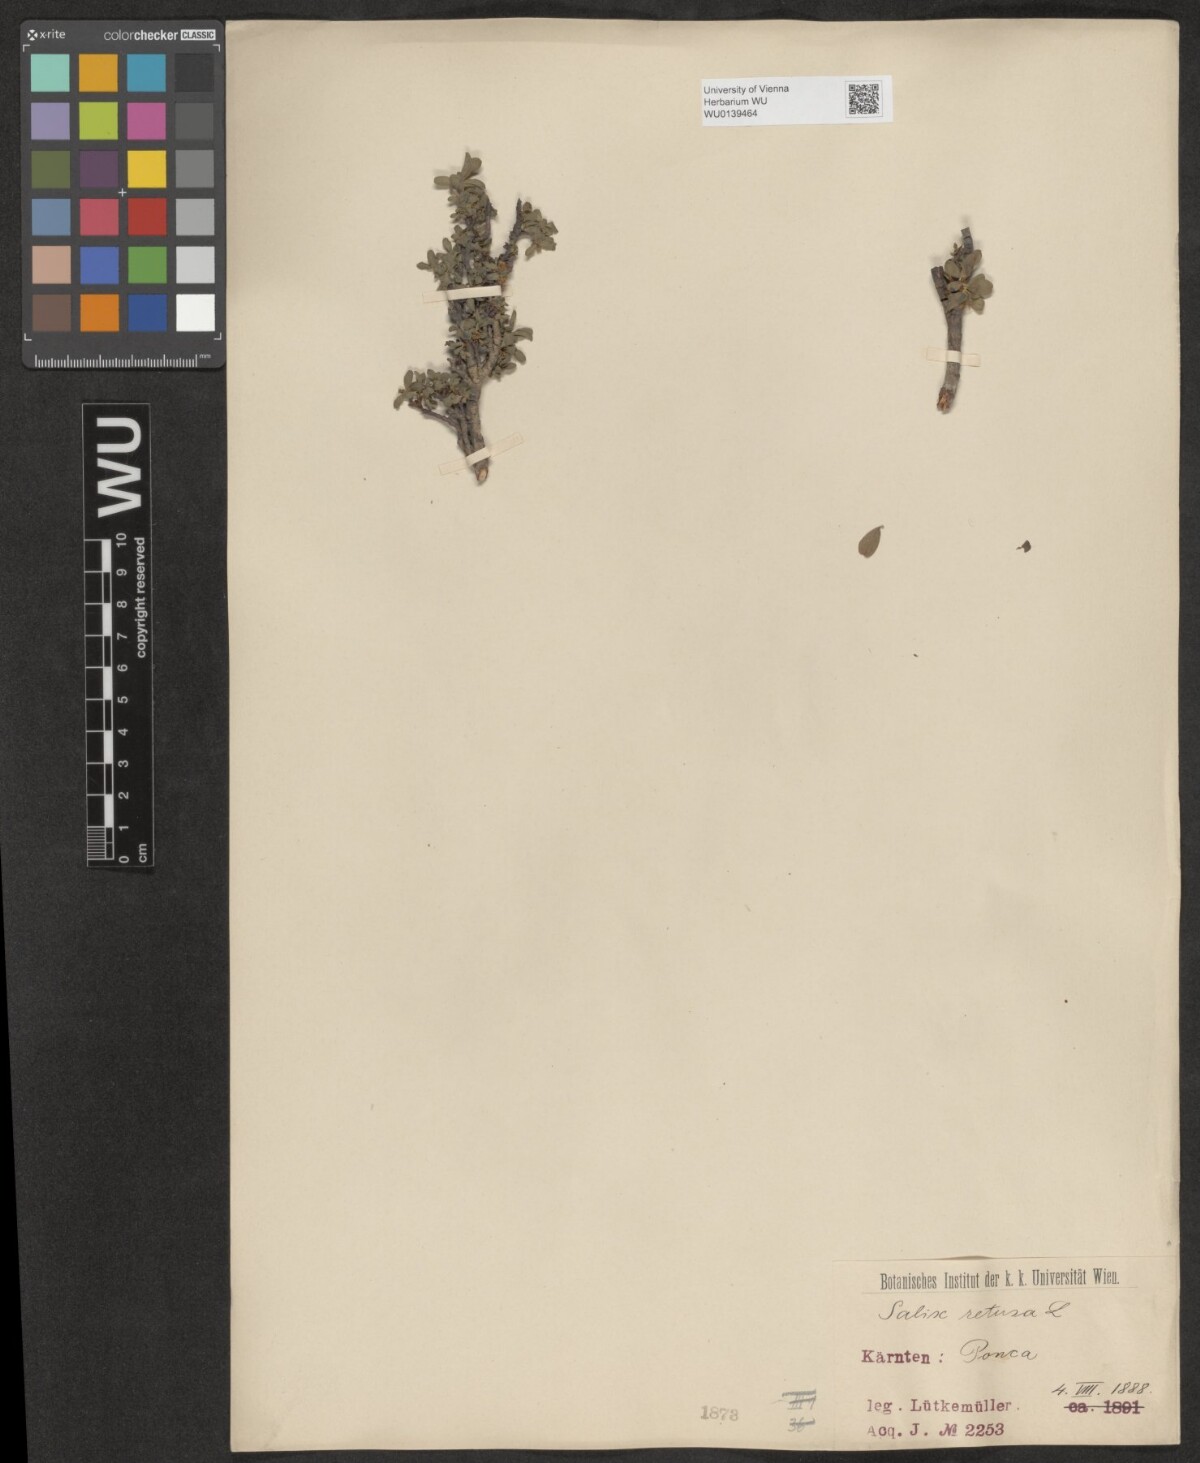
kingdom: Plantae
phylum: Tracheophyta
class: Magnoliopsida
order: Malpighiales
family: Salicaceae
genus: Salix
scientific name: Salix retusa
